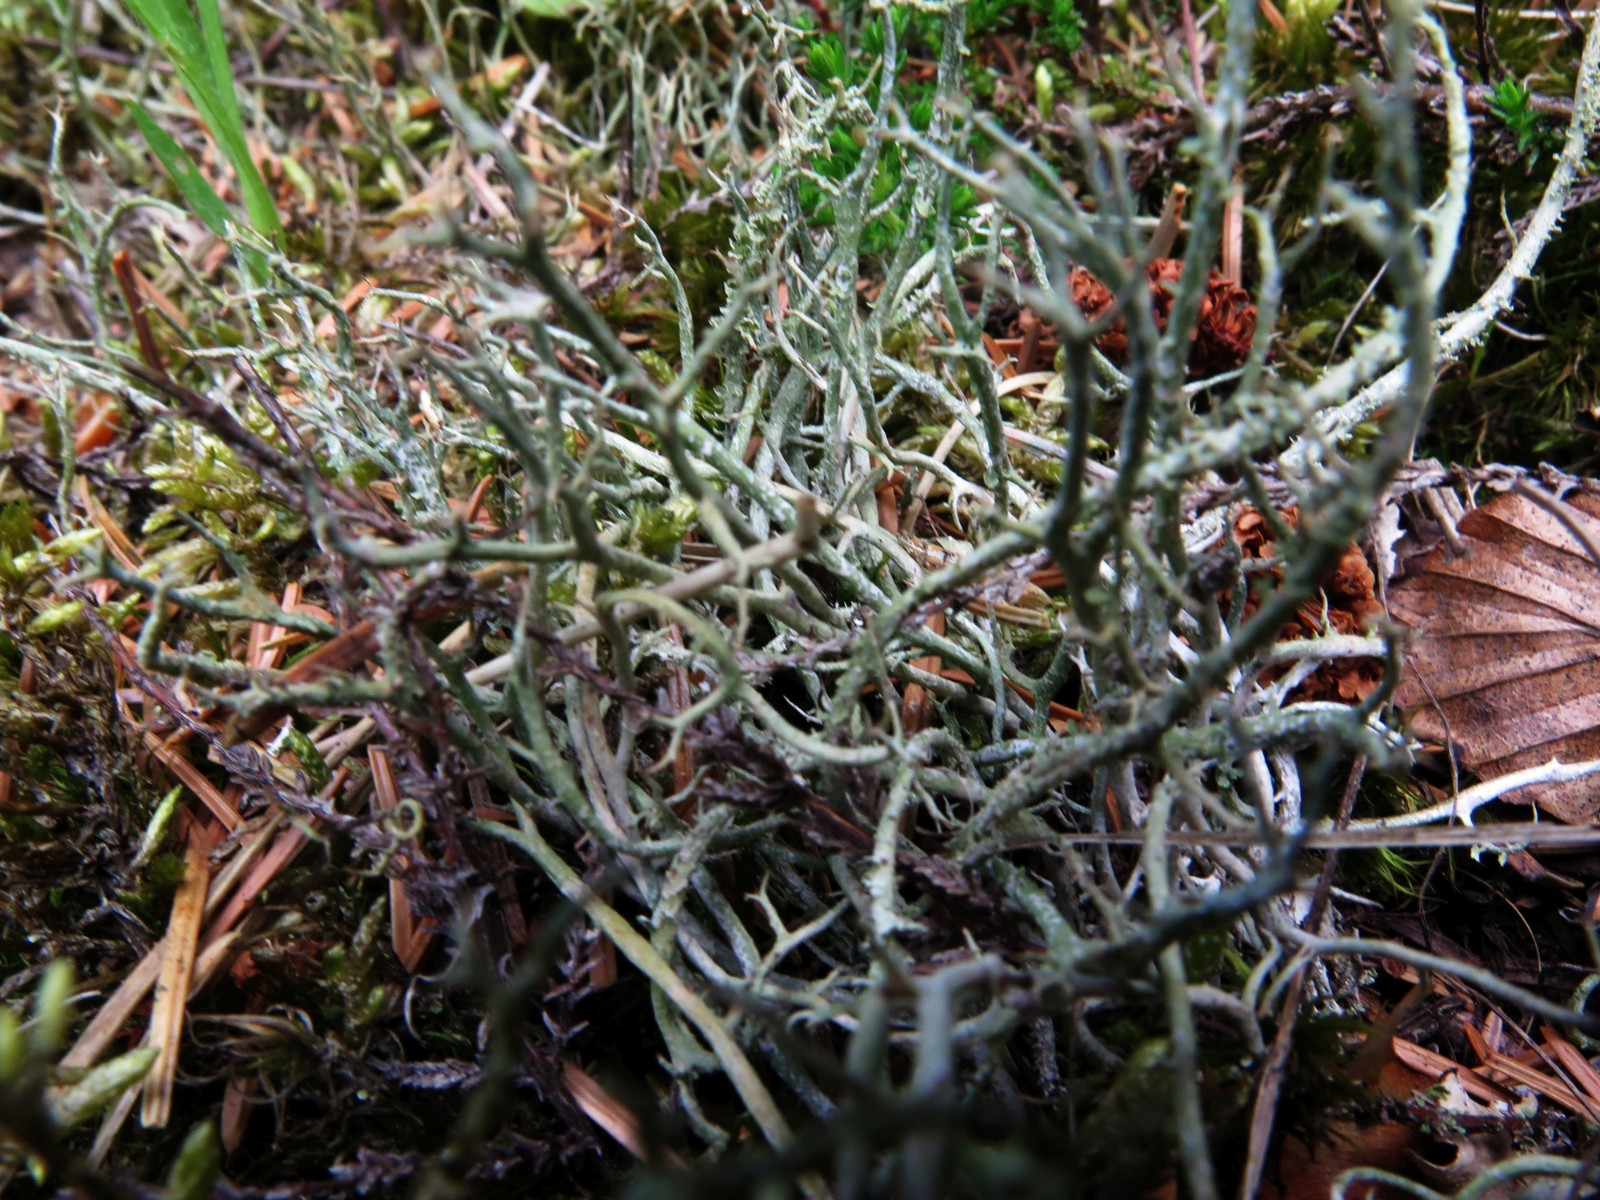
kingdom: Fungi
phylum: Ascomycota
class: Lecanoromycetes
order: Lecanorales
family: Cladoniaceae
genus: Cladonia
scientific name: Cladonia scabriuscula
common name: ru bægerlav
